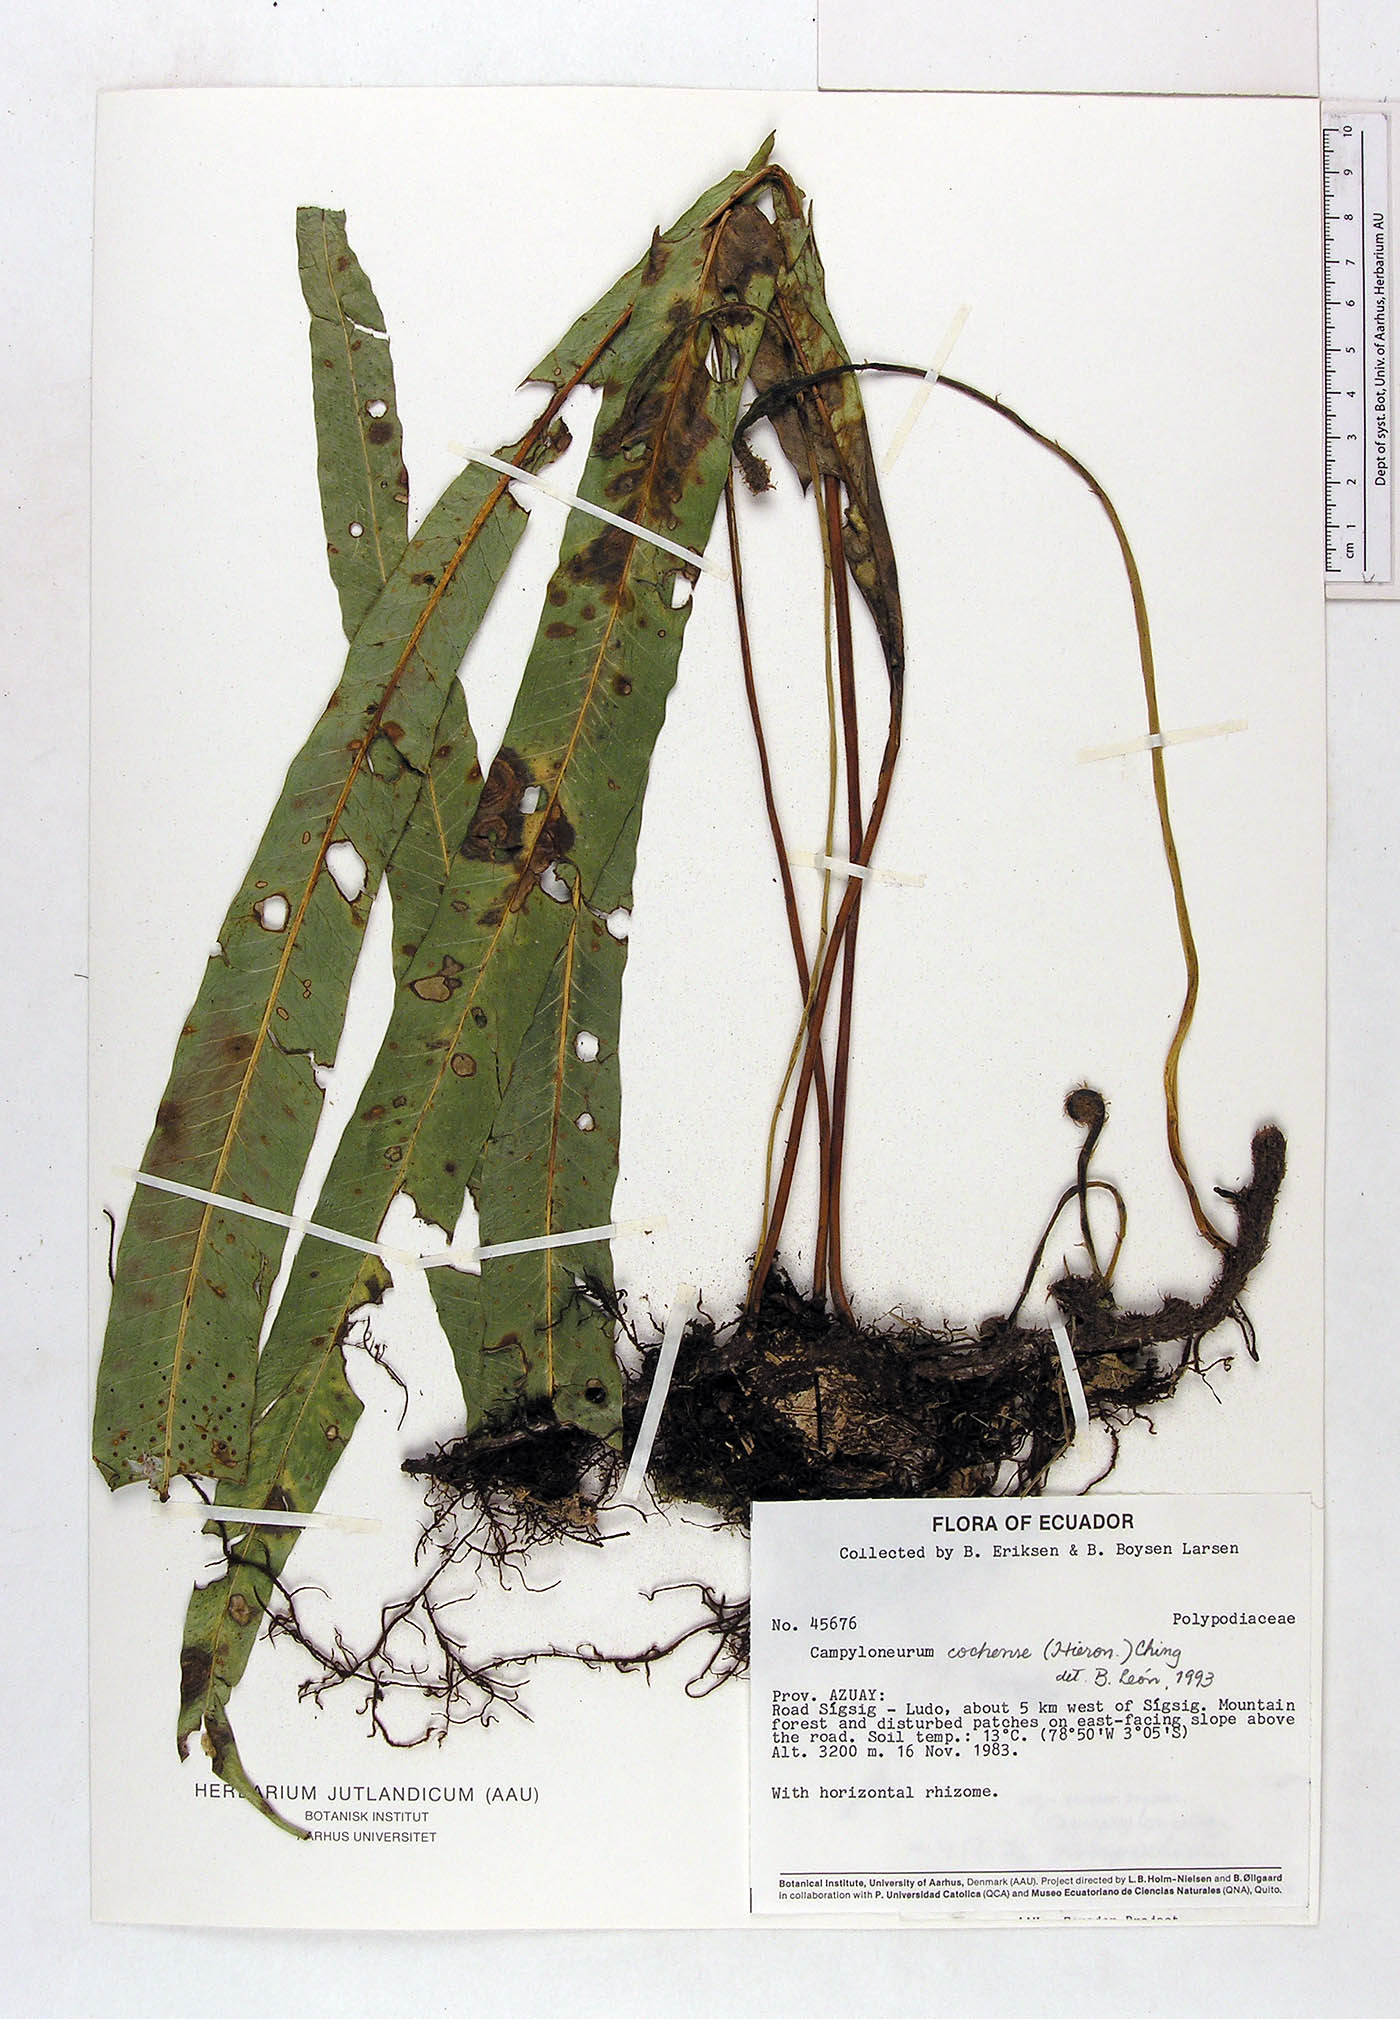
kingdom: Plantae
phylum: Tracheophyta
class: Polypodiopsida
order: Polypodiales
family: Polypodiaceae
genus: Campyloneurum
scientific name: Campyloneurum cochense
